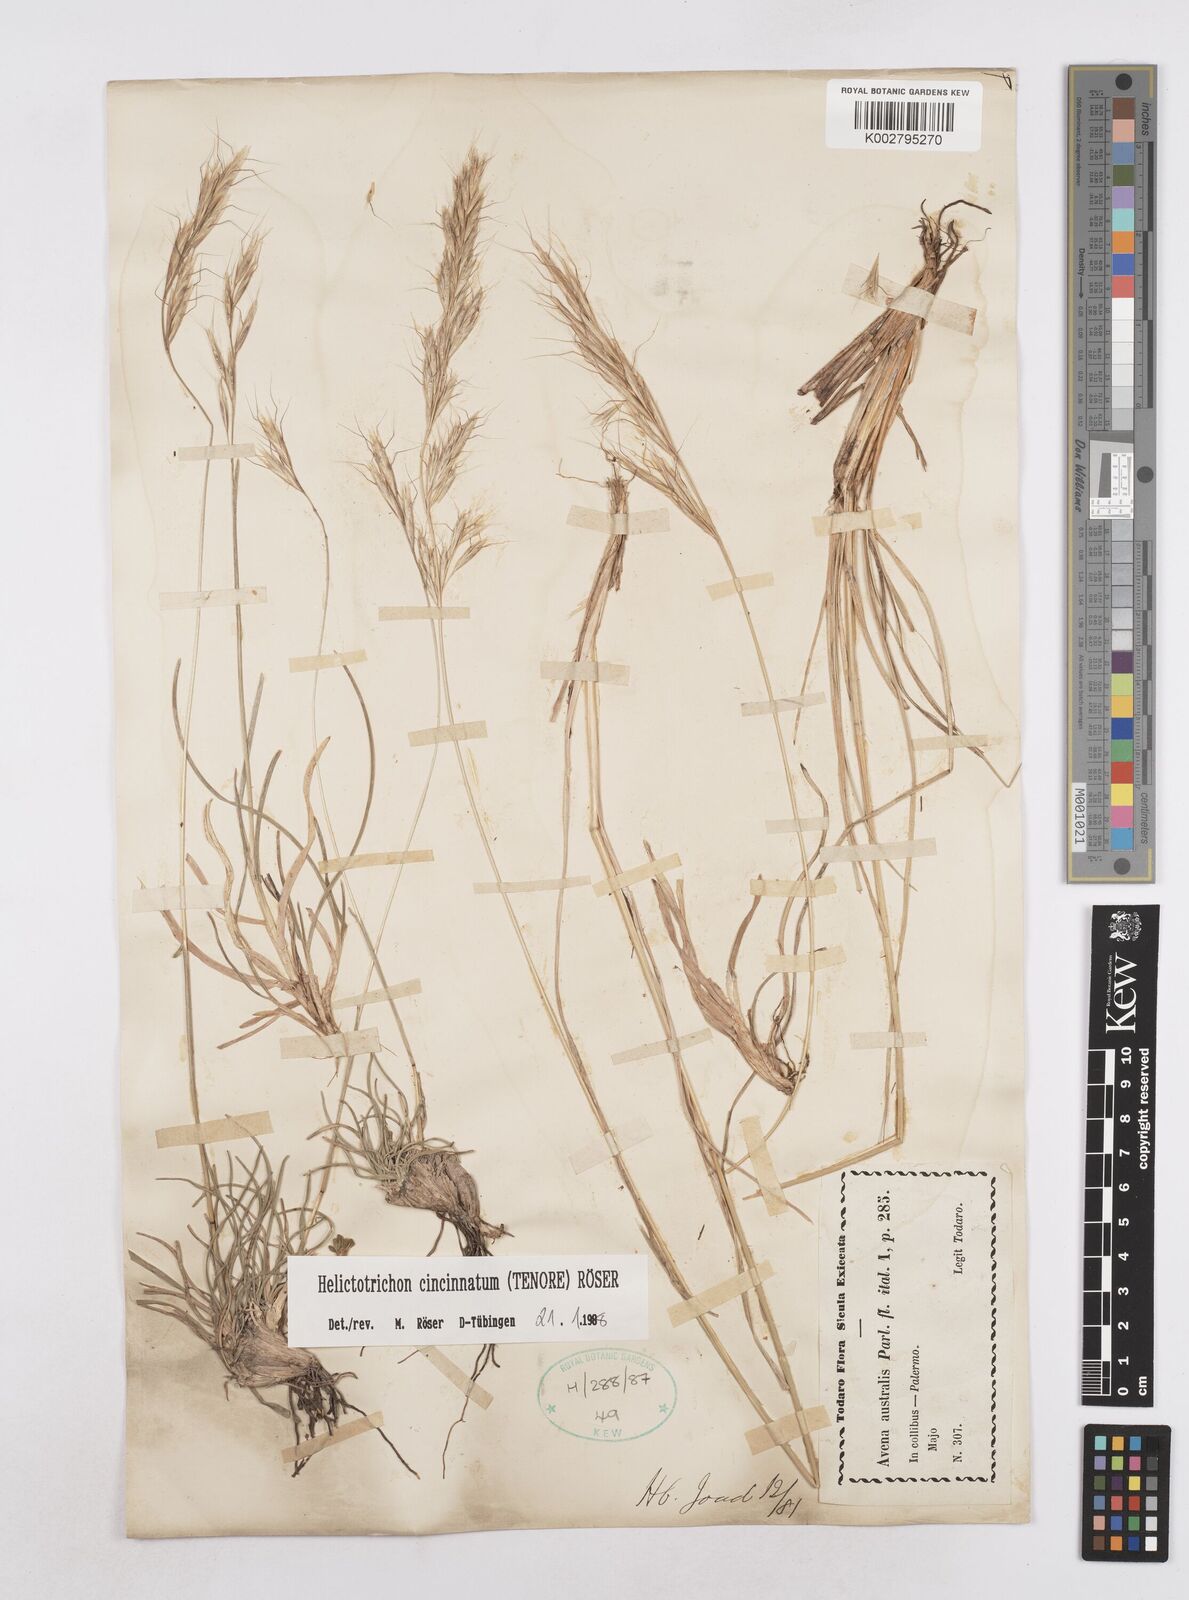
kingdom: Plantae
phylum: Tracheophyta
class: Liliopsida
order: Poales
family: Poaceae
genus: Helictochloa
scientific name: Helictochloa cincinnata
